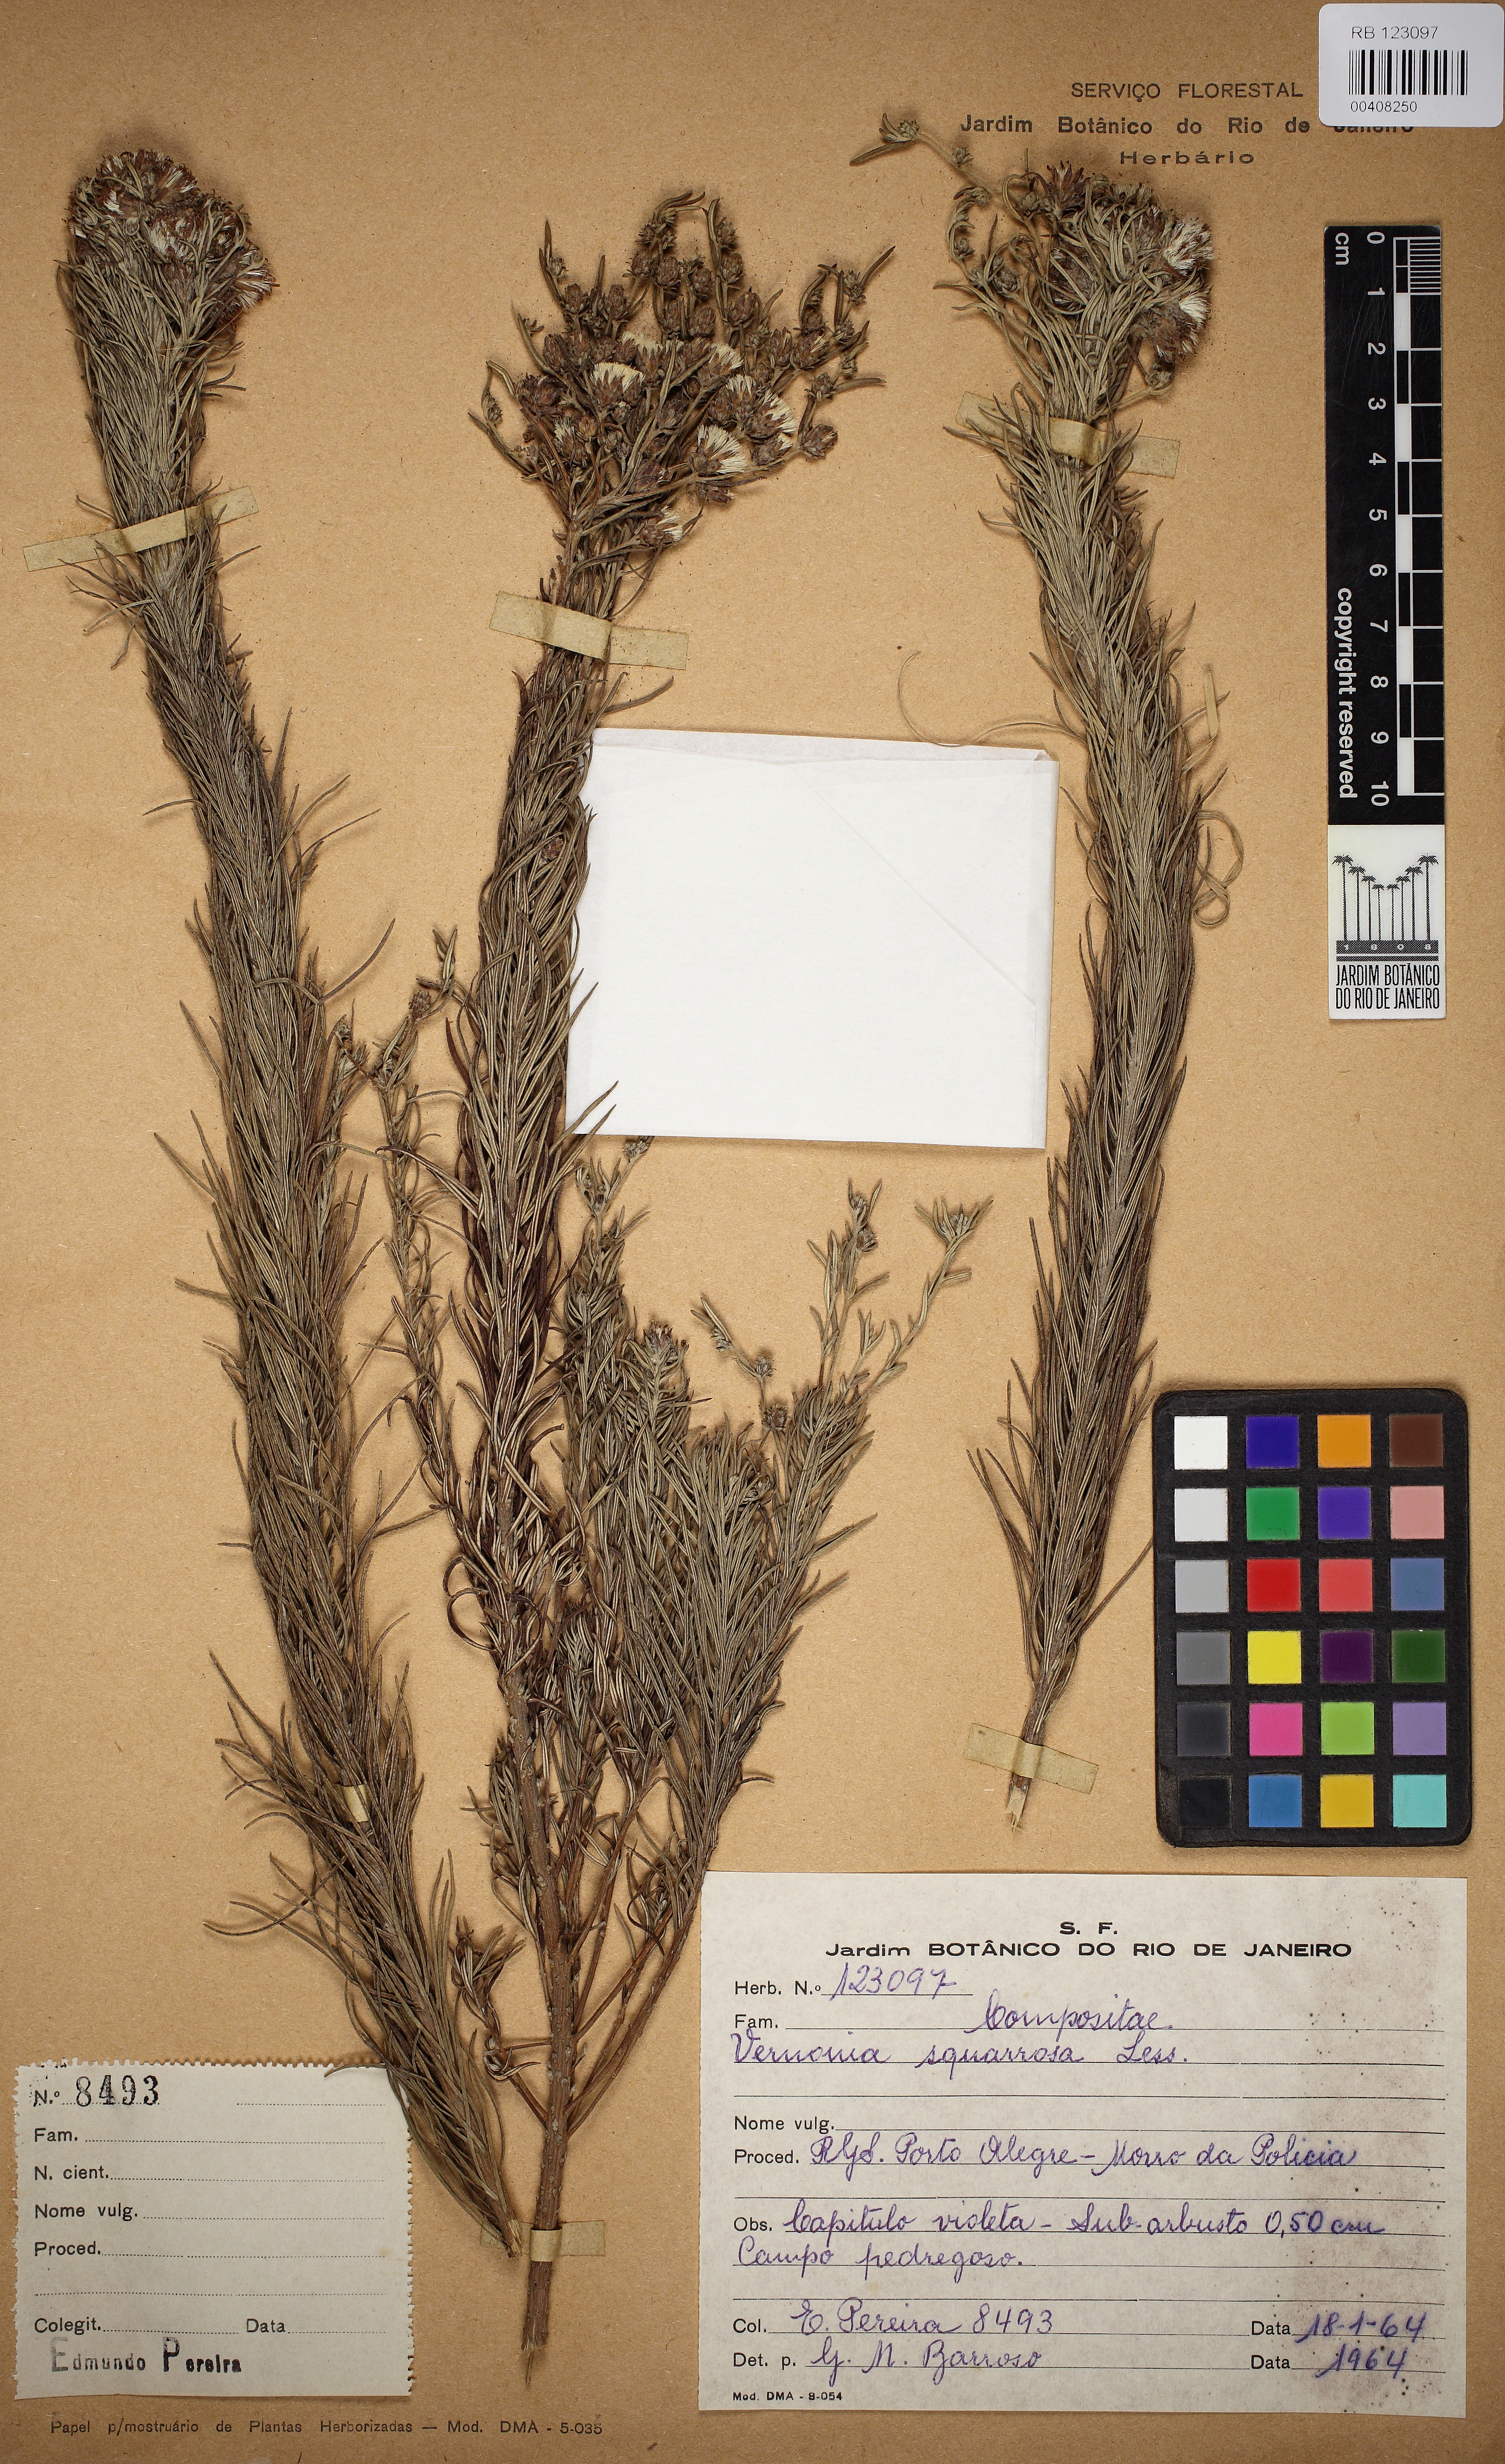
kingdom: Plantae
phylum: Tracheophyta
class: Magnoliopsida
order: Asterales
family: Asteraceae
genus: Lessingianthus
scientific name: Lessingianthus plantaginoides
